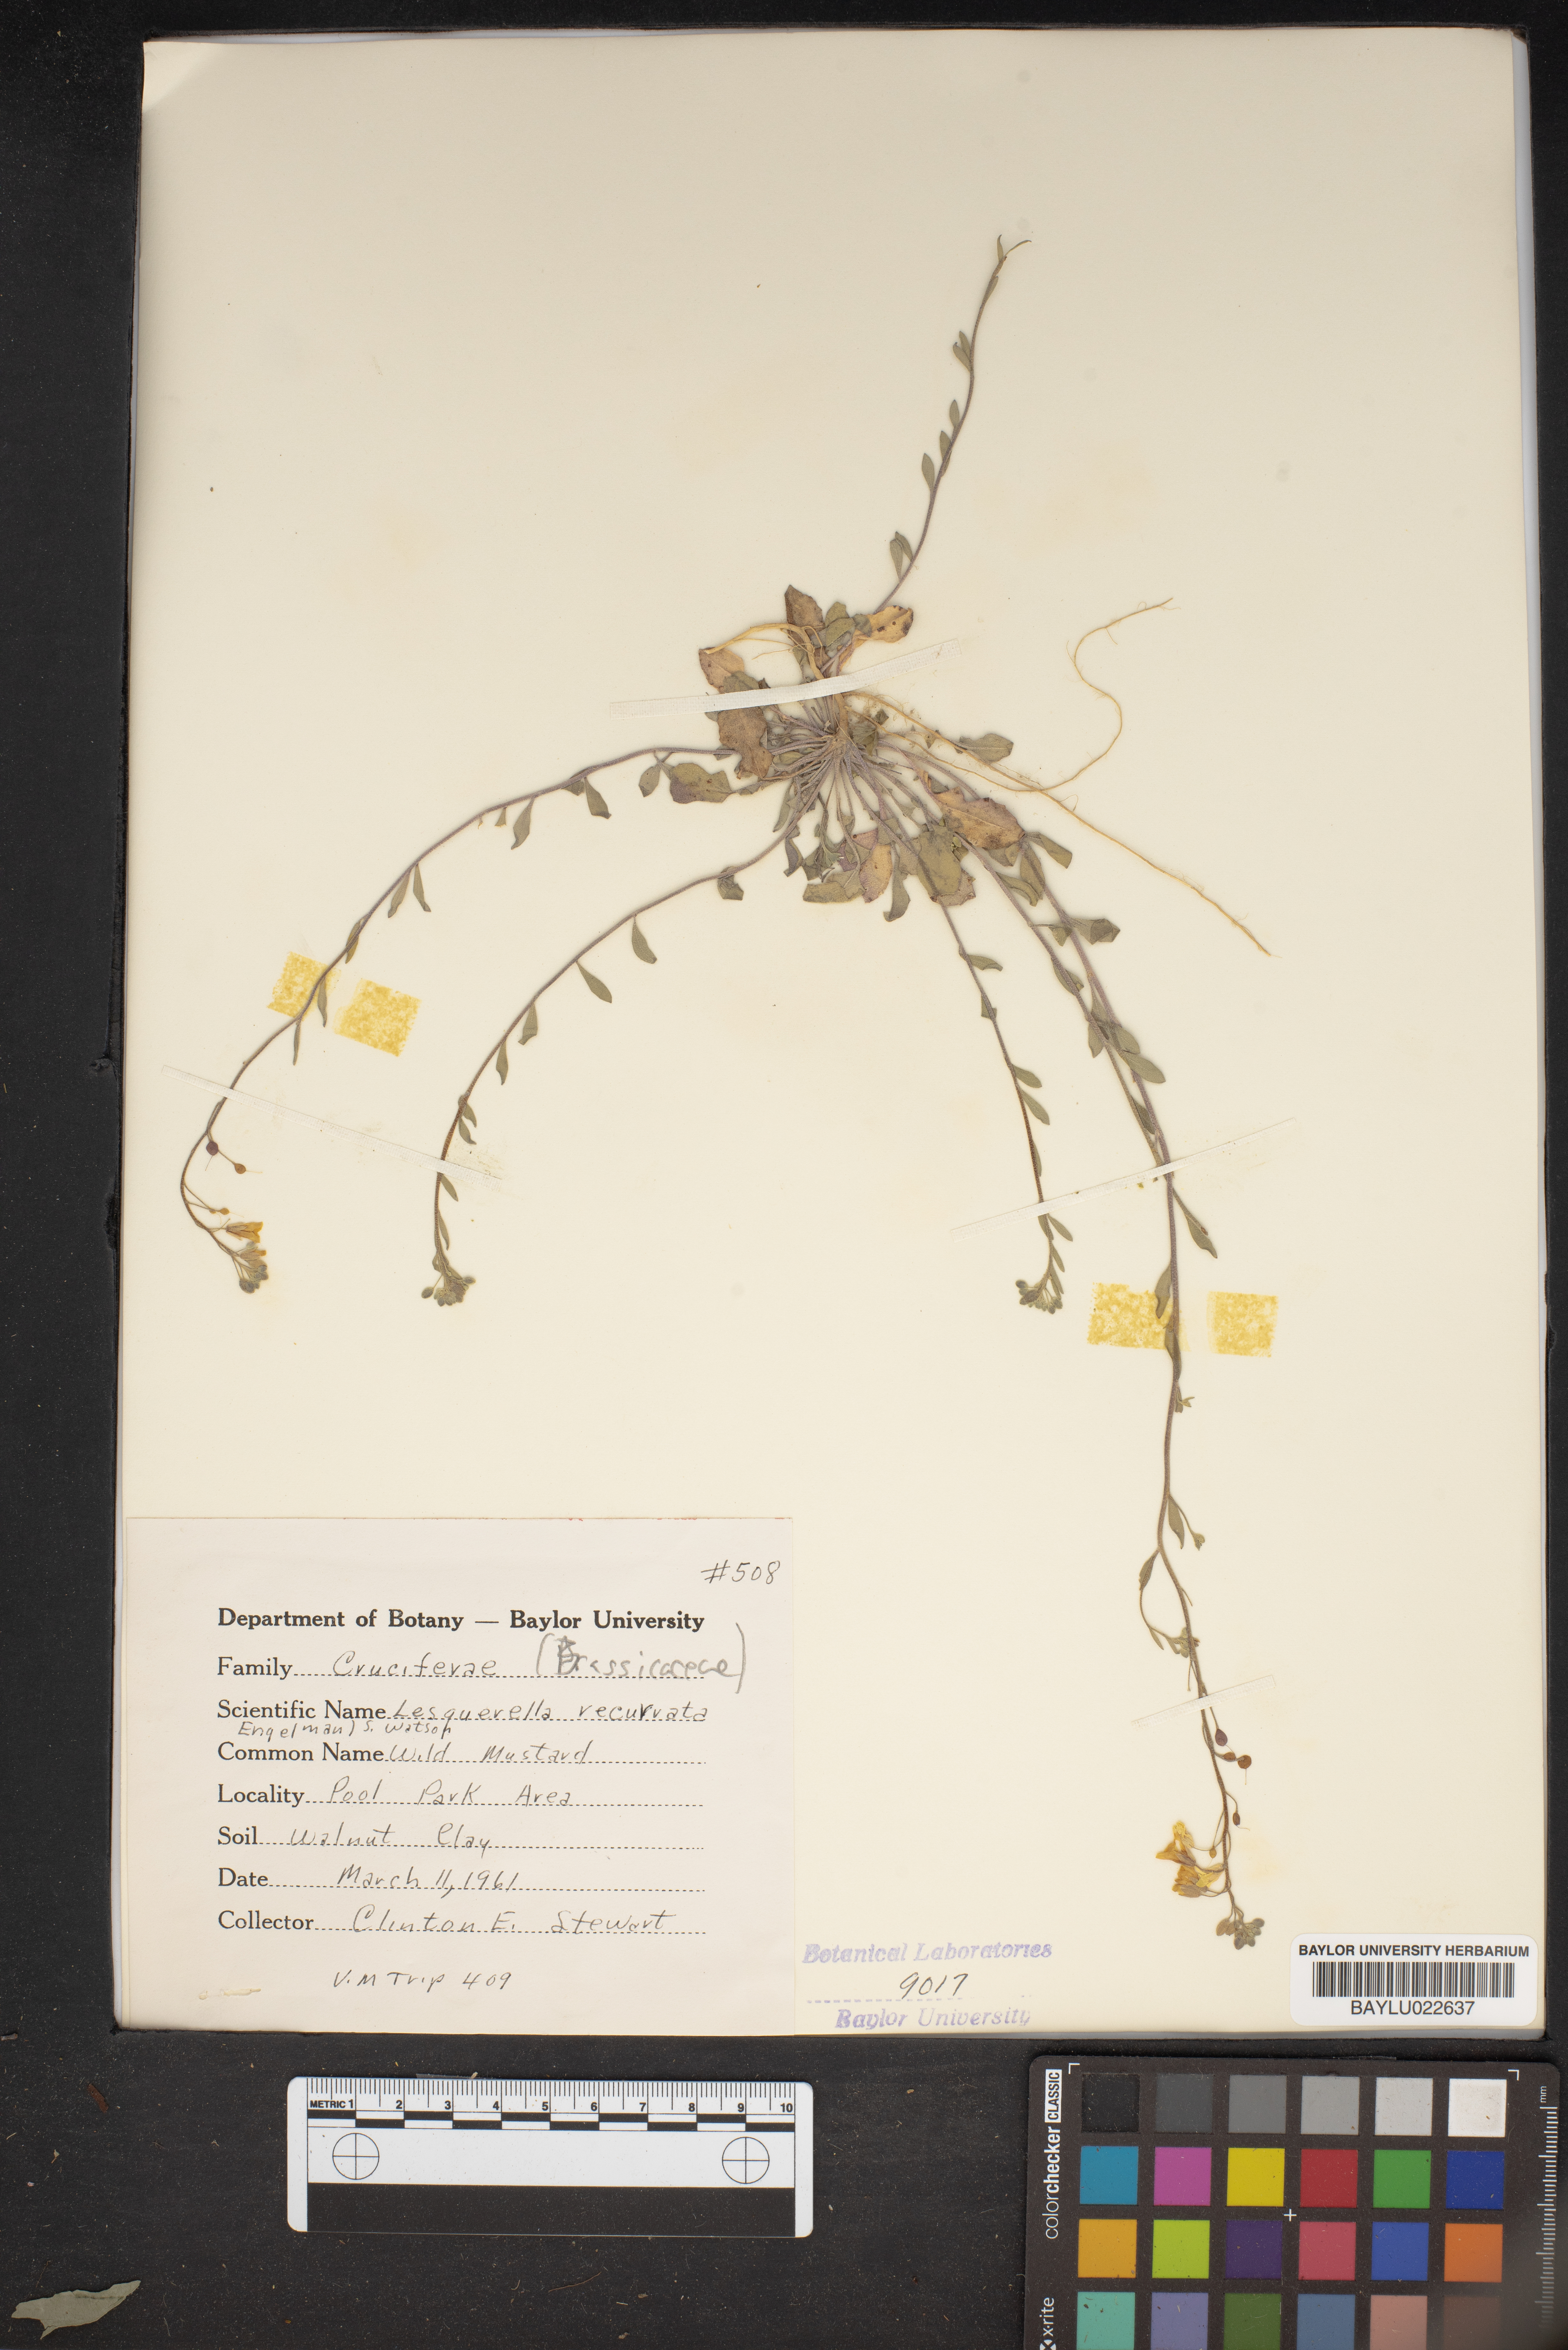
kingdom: Plantae
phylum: Tracheophyta
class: Magnoliopsida
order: Brassicales
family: Brassicaceae
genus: Physaria
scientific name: Physaria recurvata
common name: Gaslight bladderpod
